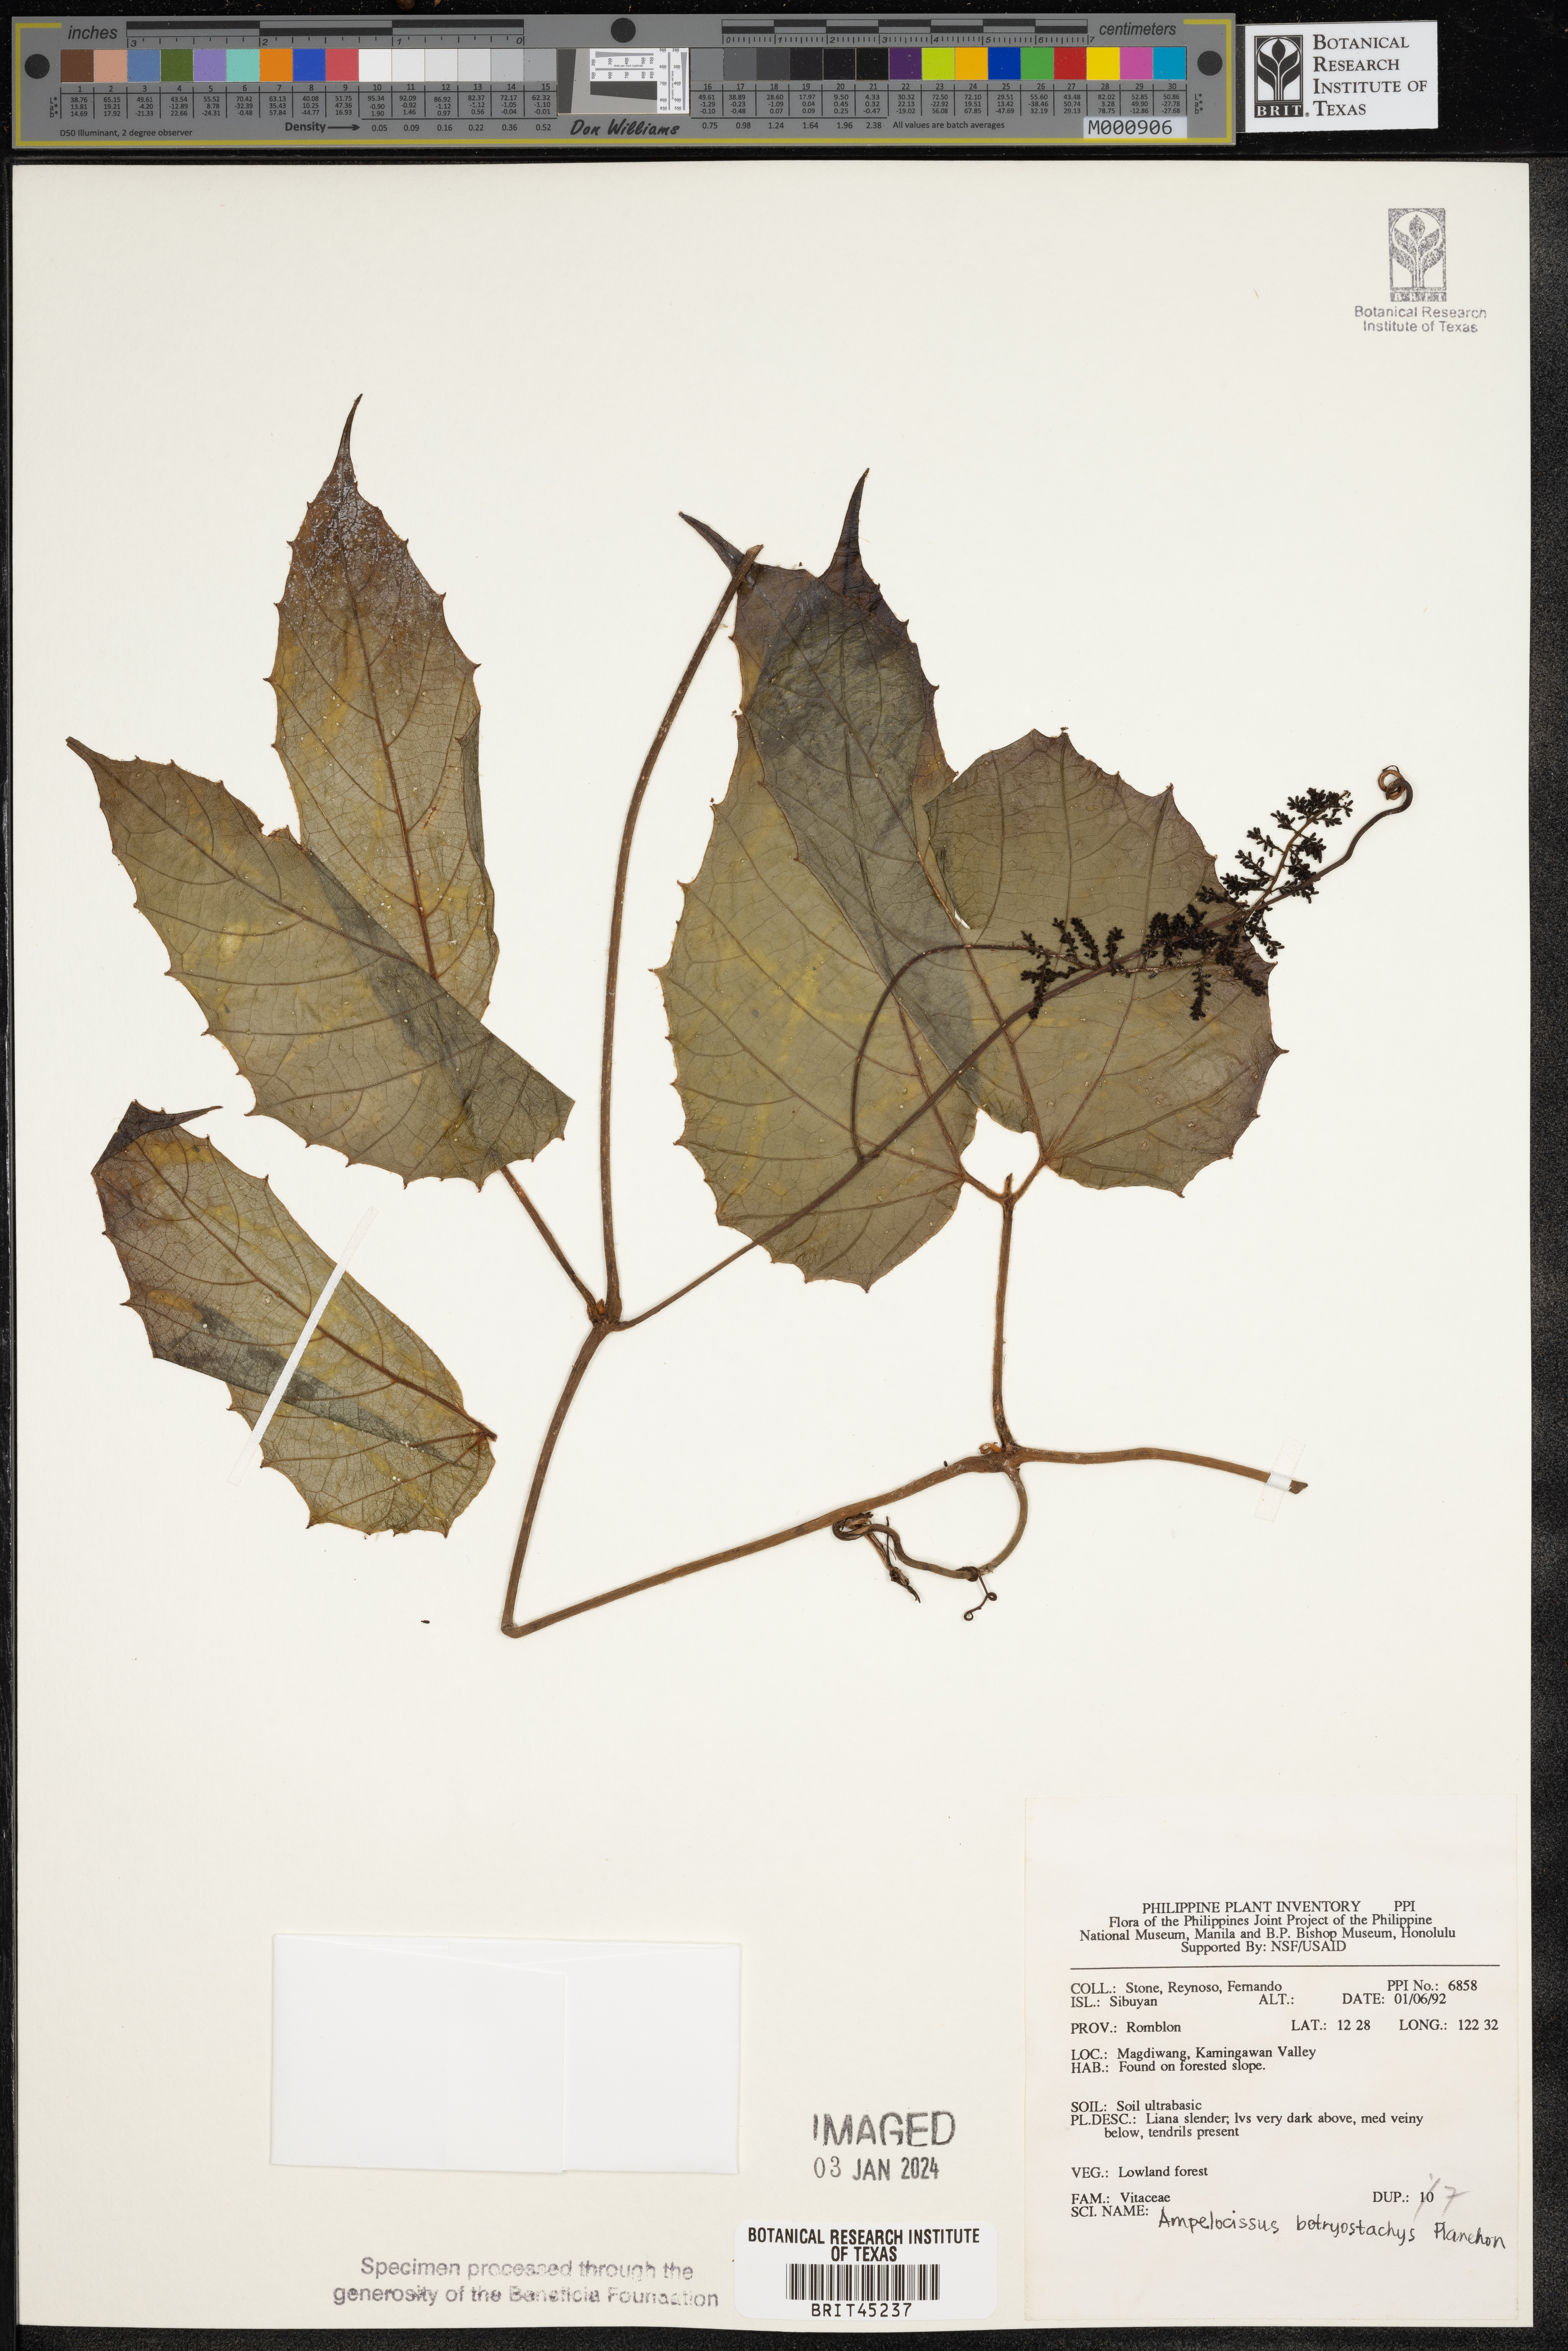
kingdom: Plantae
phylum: Tracheophyta
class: Magnoliopsida
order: Vitales
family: Vitaceae
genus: Ampelocissus
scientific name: Ampelocissus botryostachys
